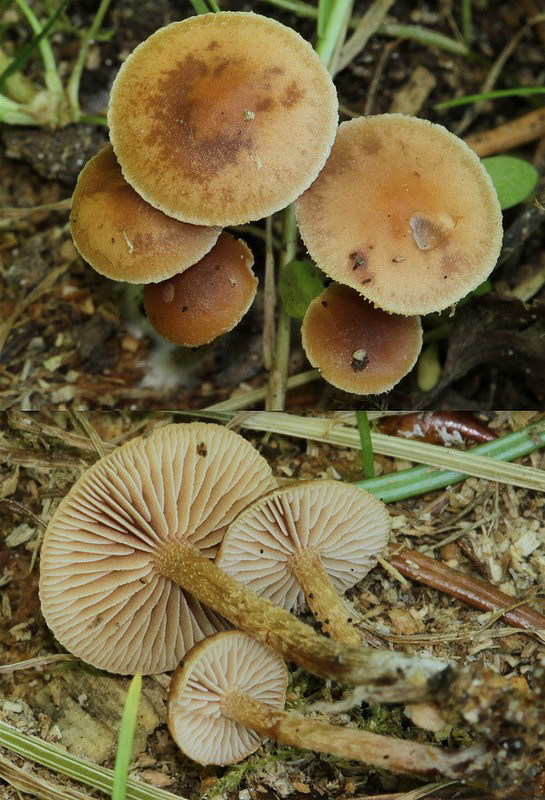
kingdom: Fungi
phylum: Basidiomycota
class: Agaricomycetes
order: Agaricales
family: Strophariaceae
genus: Deconica
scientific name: Deconica crobula
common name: træflis-stråhat
